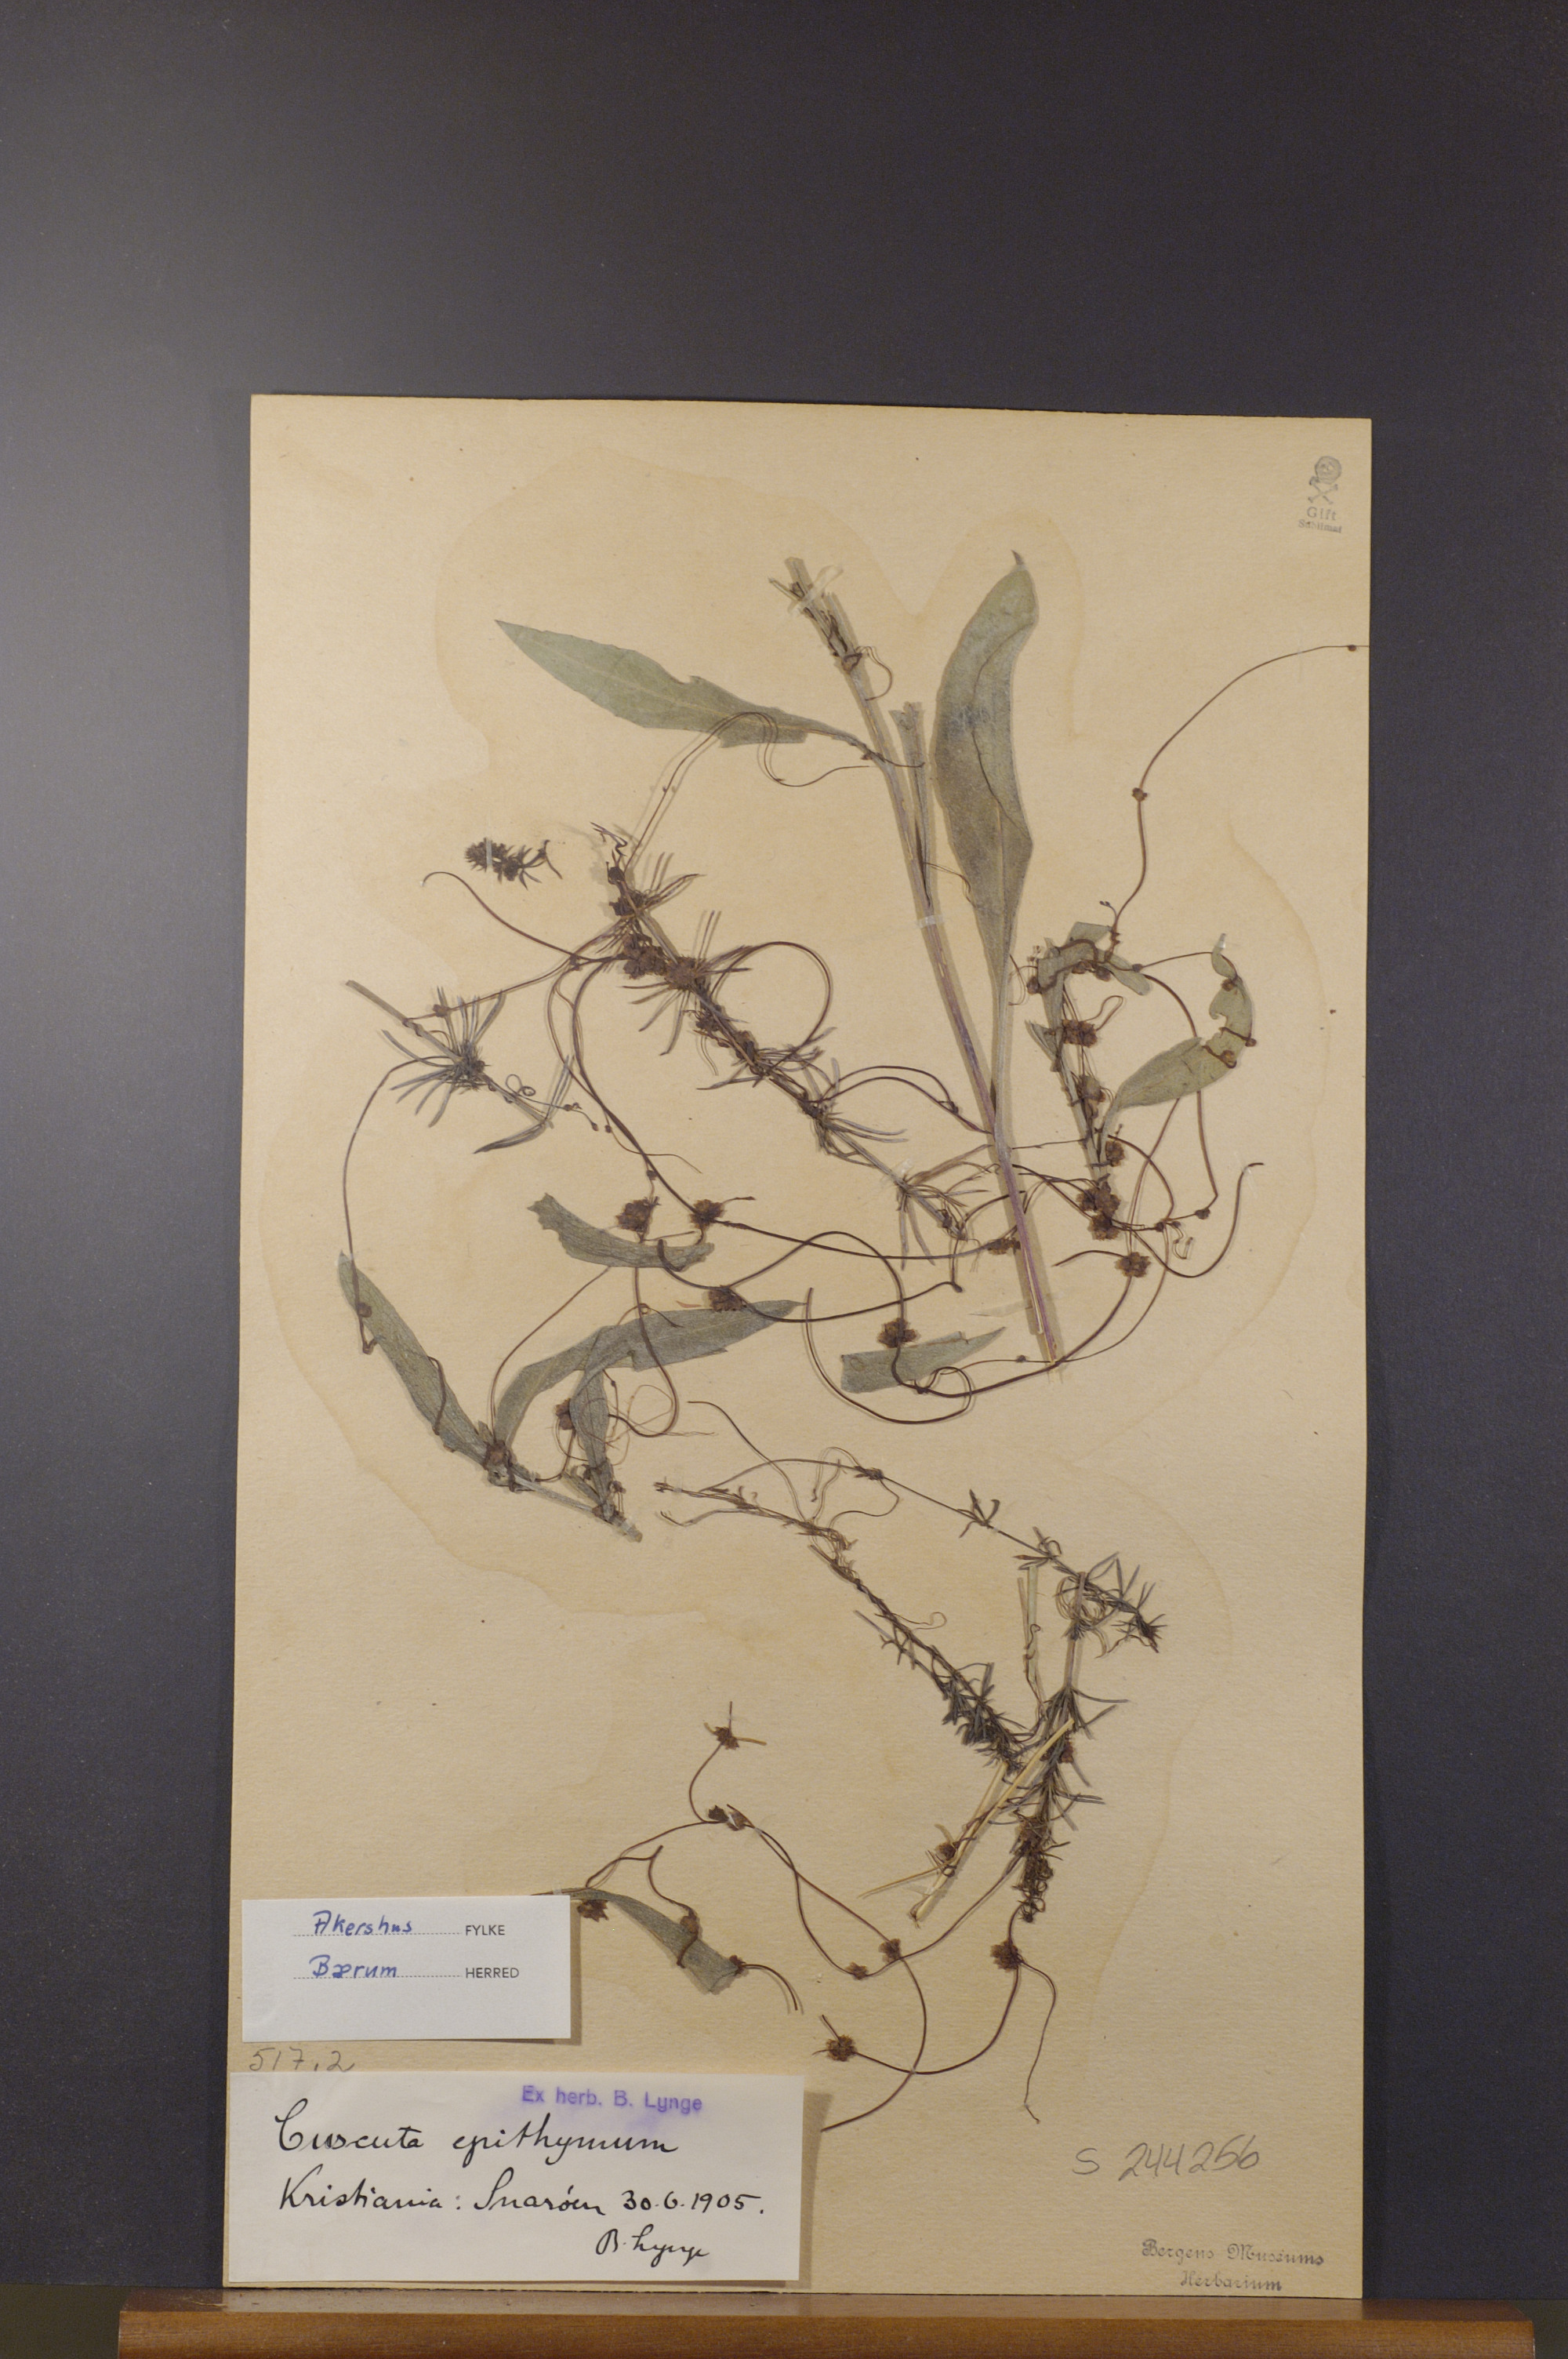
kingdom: Plantae
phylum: Tracheophyta
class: Magnoliopsida
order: Solanales
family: Convolvulaceae
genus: Cuscuta
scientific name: Cuscuta epithymum
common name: Clover dodder
